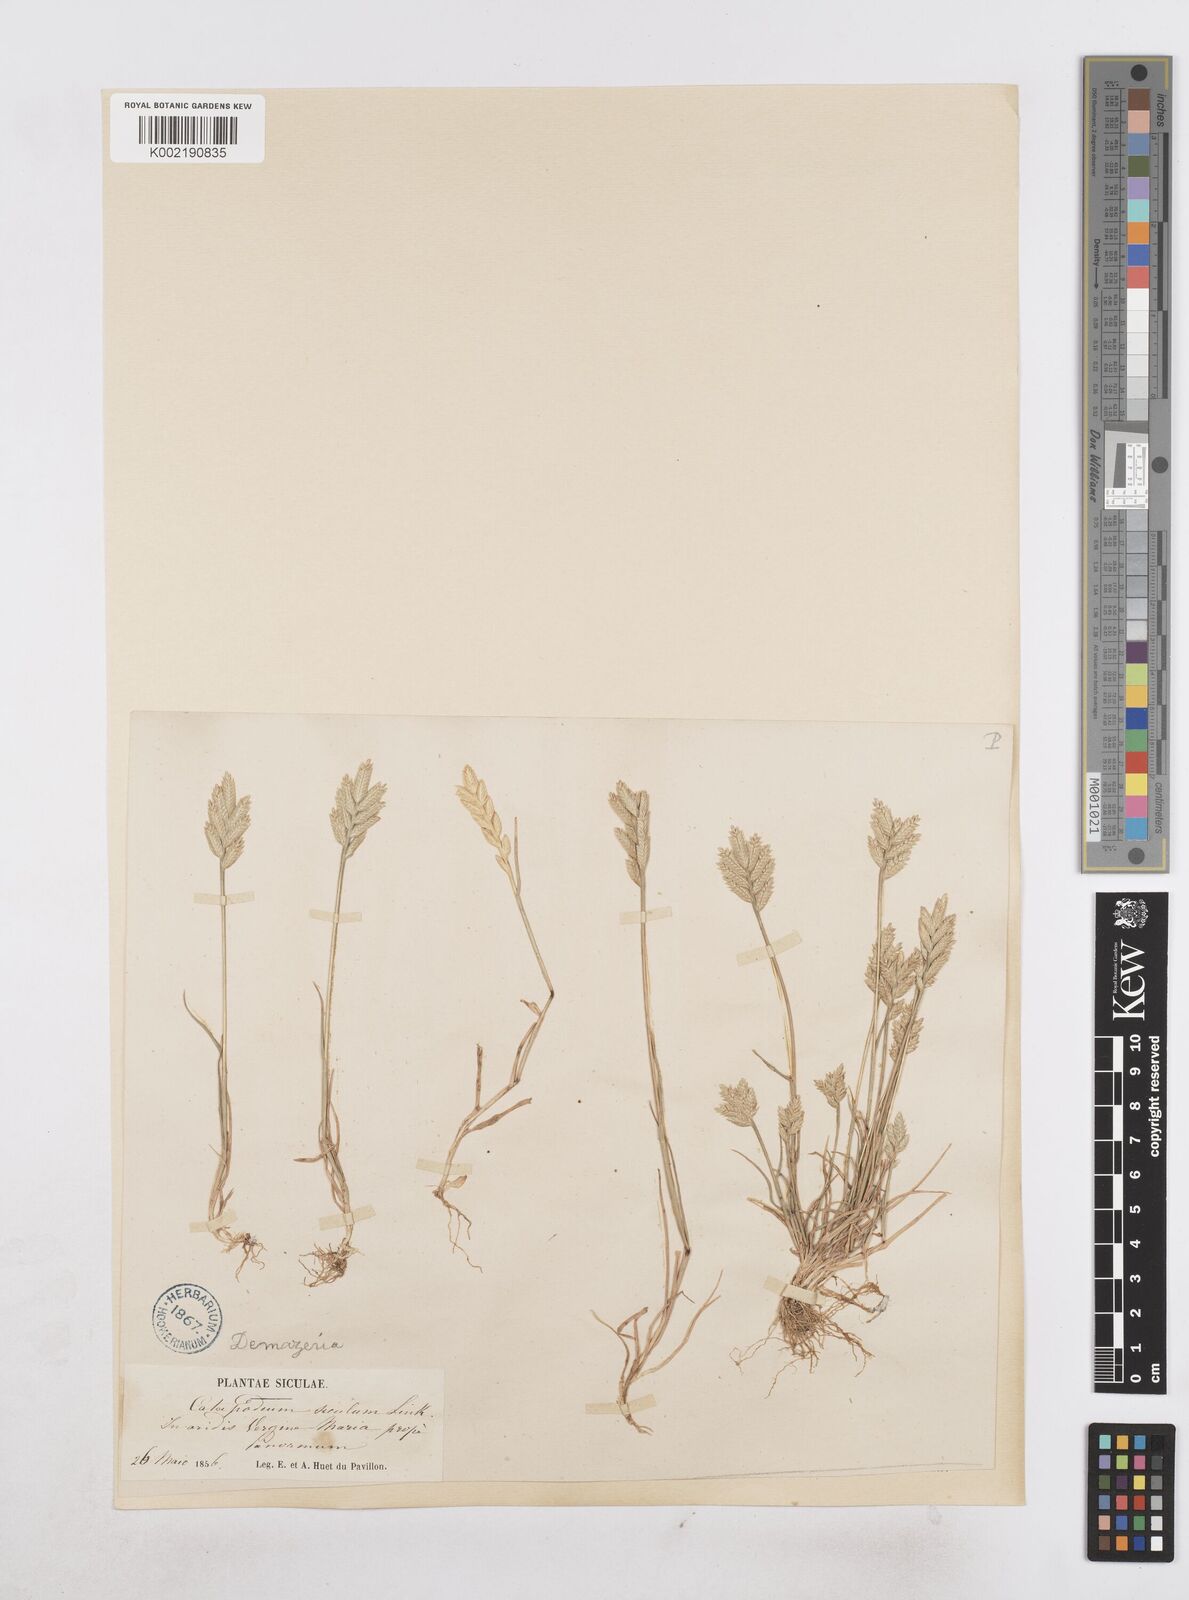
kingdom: Plantae
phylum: Tracheophyta
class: Liliopsida
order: Poales
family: Poaceae
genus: Desmazeria
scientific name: Desmazeria sicula
